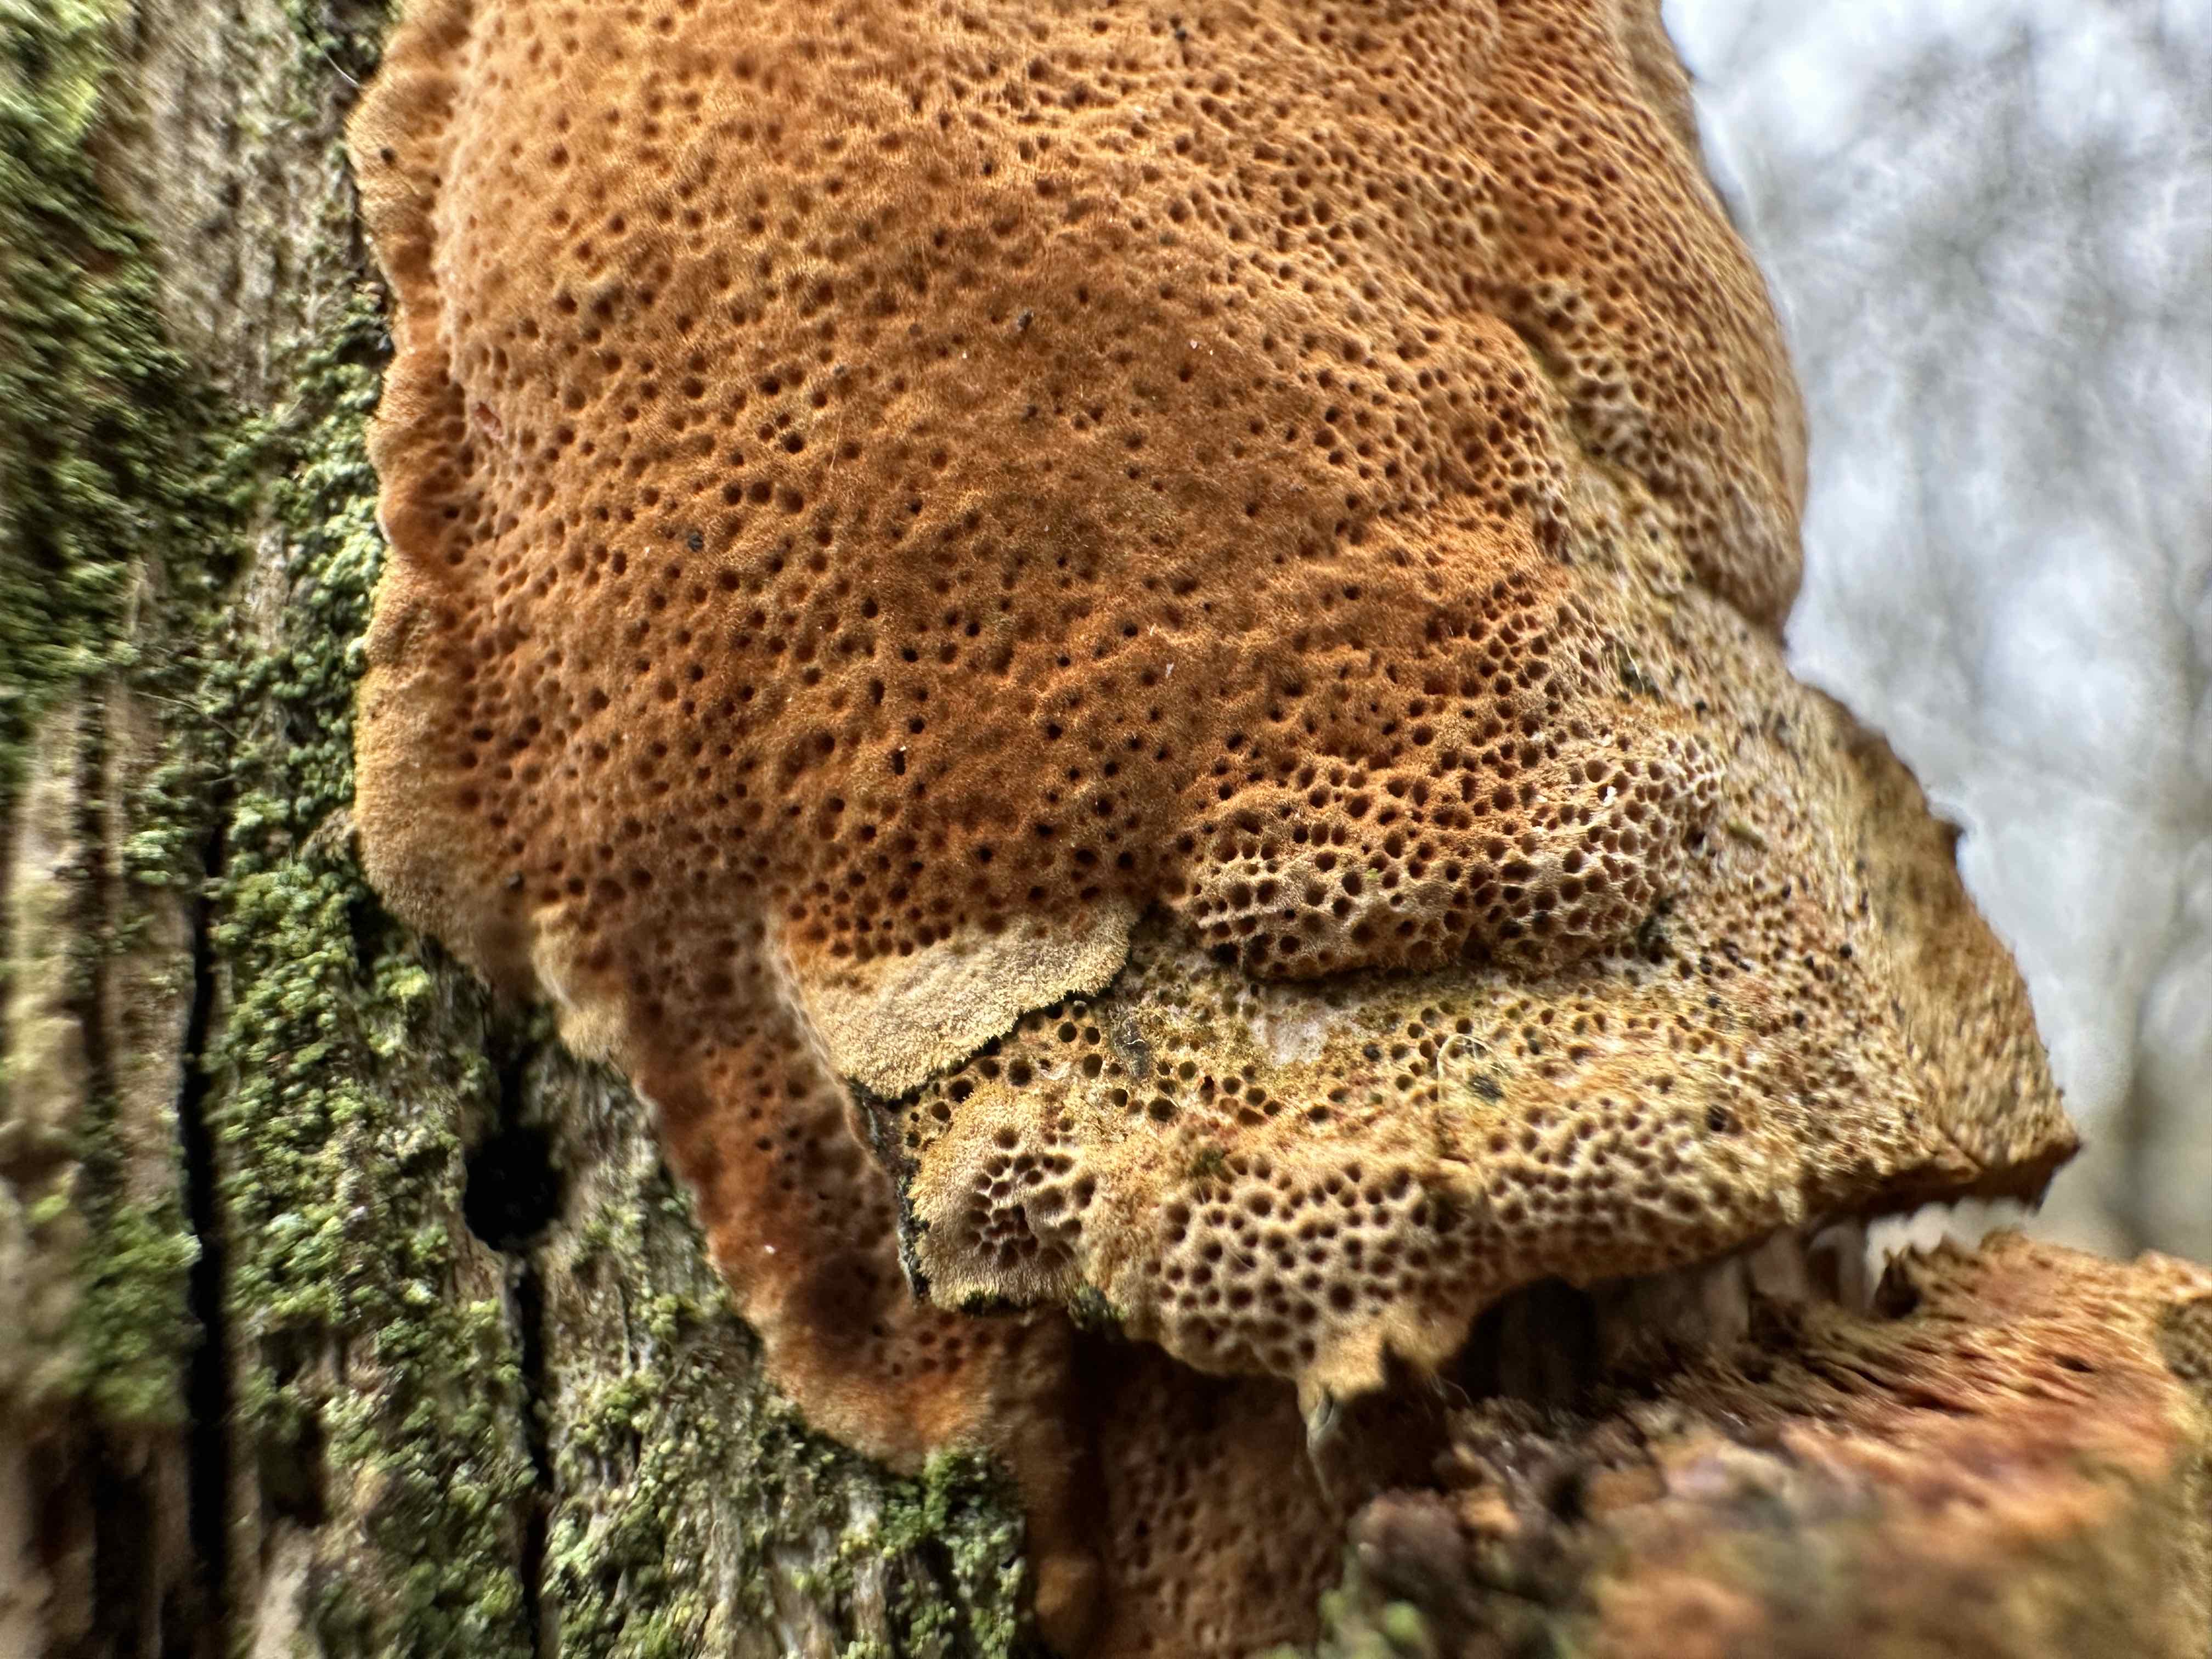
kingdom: Fungi
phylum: Basidiomycota
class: Agaricomycetes
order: Hymenochaetales
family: Hymenochaetaceae
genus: Fuscoporia
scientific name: Fuscoporia ferrea
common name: skorpe-ildporesvamp
